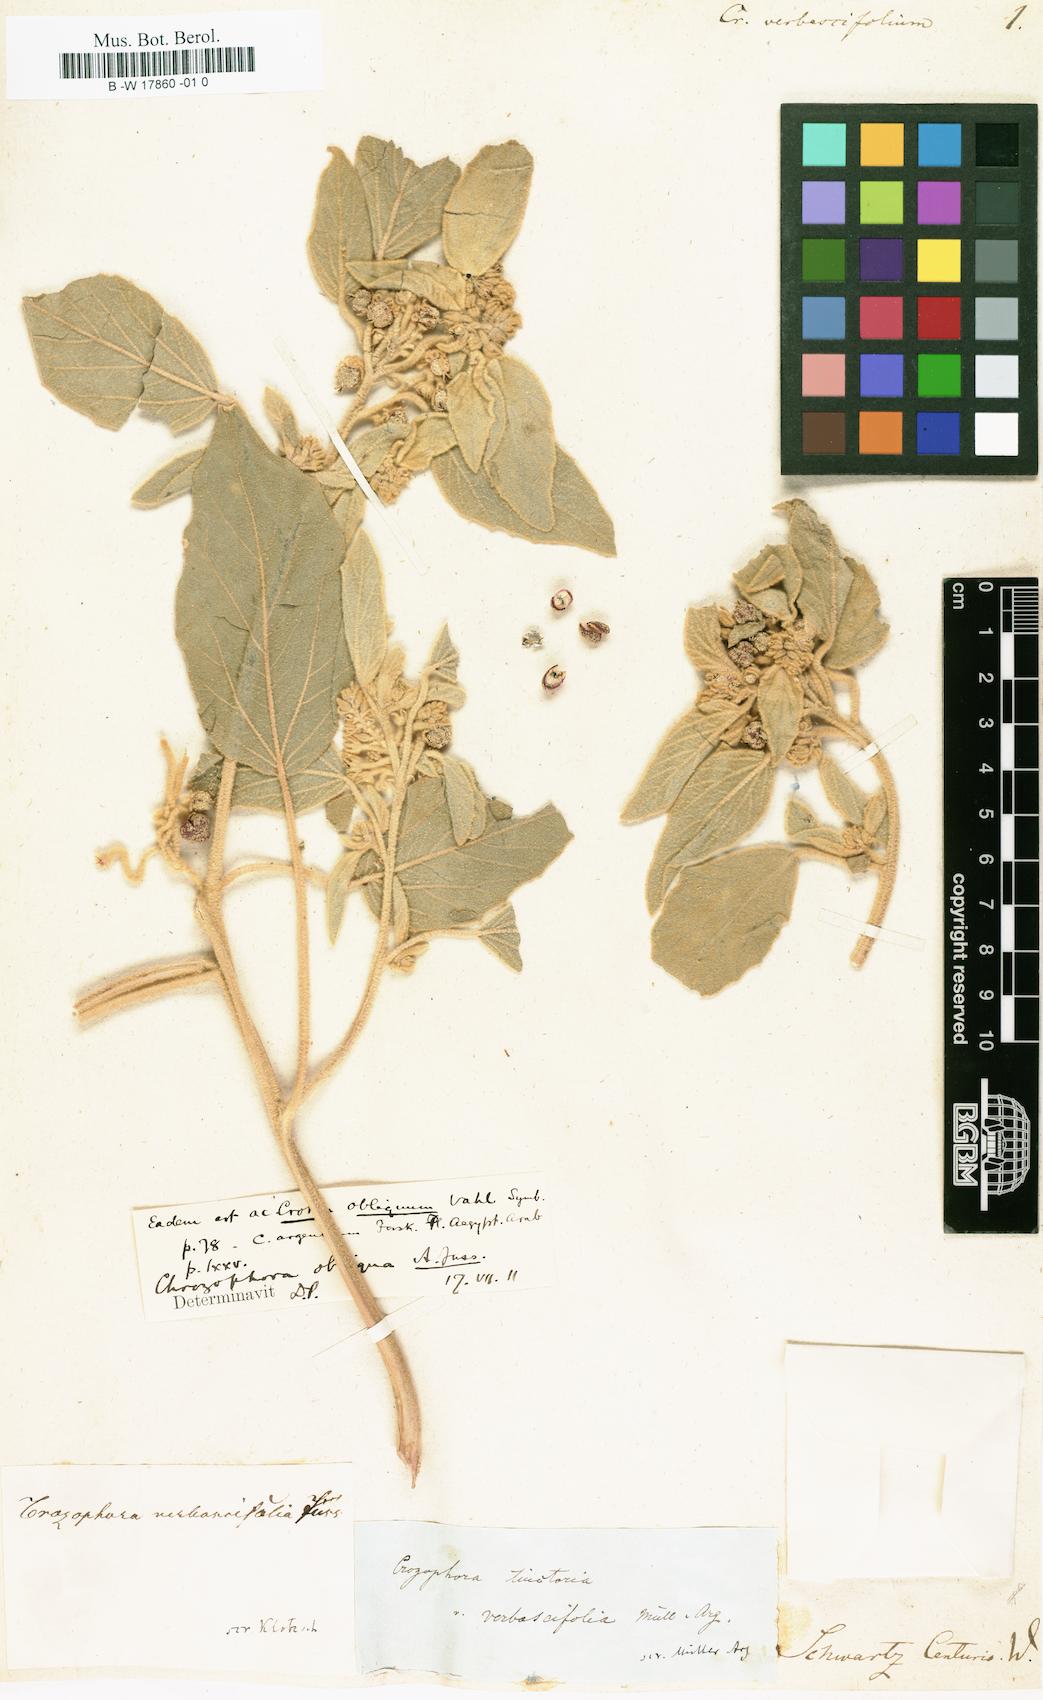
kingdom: Plantae
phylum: Tracheophyta
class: Magnoliopsida
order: Malpighiales
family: Euphorbiaceae
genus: Chrozophora
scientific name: Chrozophora tinctoria
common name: Dyer's litmus
